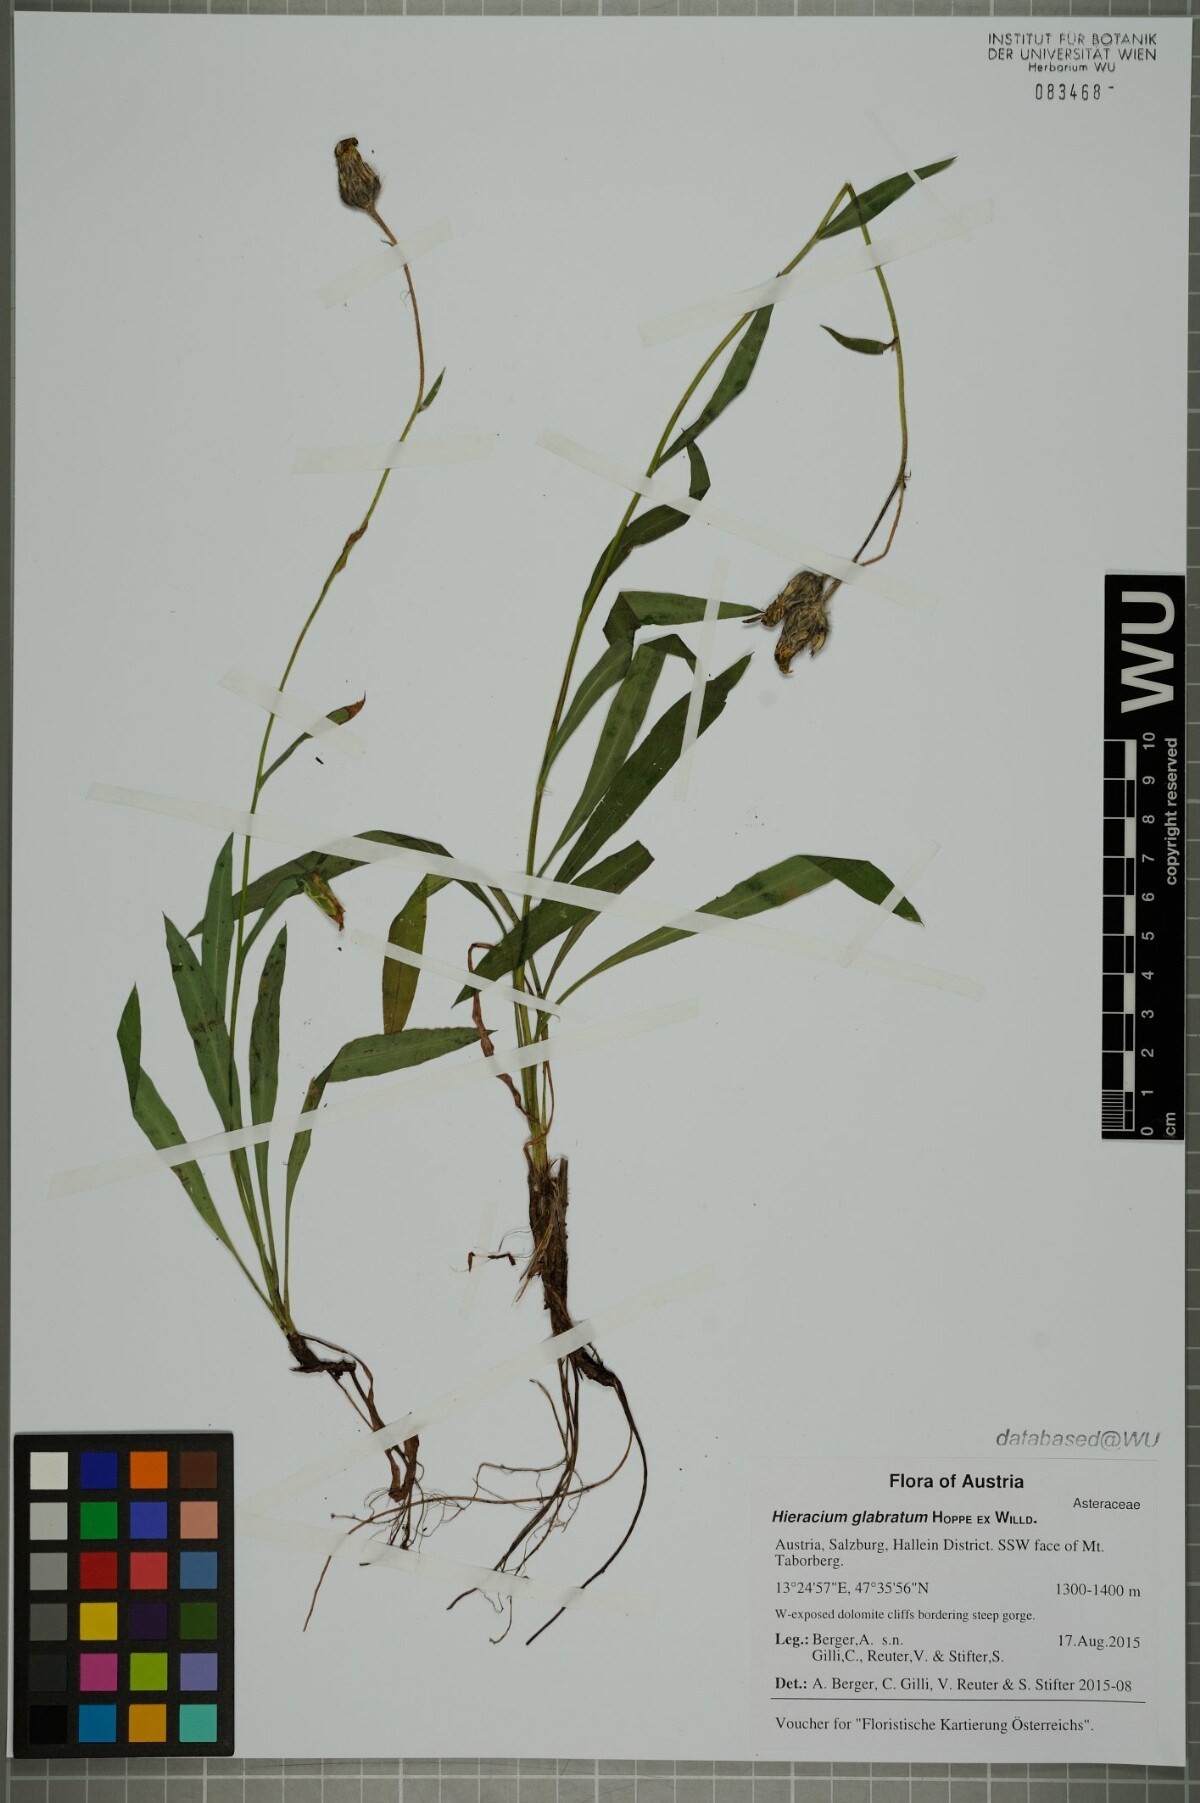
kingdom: Plantae
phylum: Tracheophyta
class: Magnoliopsida
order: Asterales
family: Asteraceae
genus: Hieracium
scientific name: Hieracium glabratum
